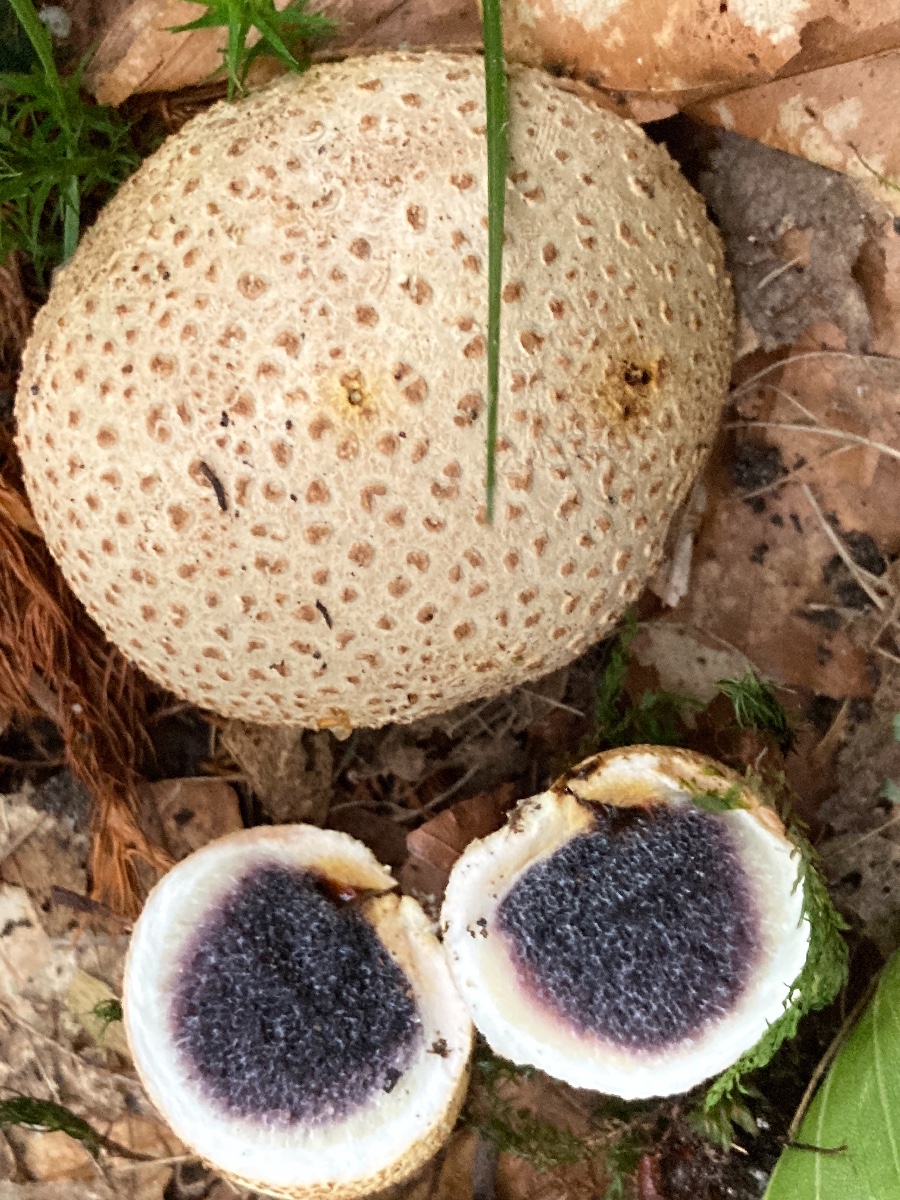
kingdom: Fungi
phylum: Basidiomycota
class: Agaricomycetes
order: Boletales
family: Sclerodermataceae
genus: Scleroderma
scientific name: Scleroderma citrinum
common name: almindelig bruskbold
